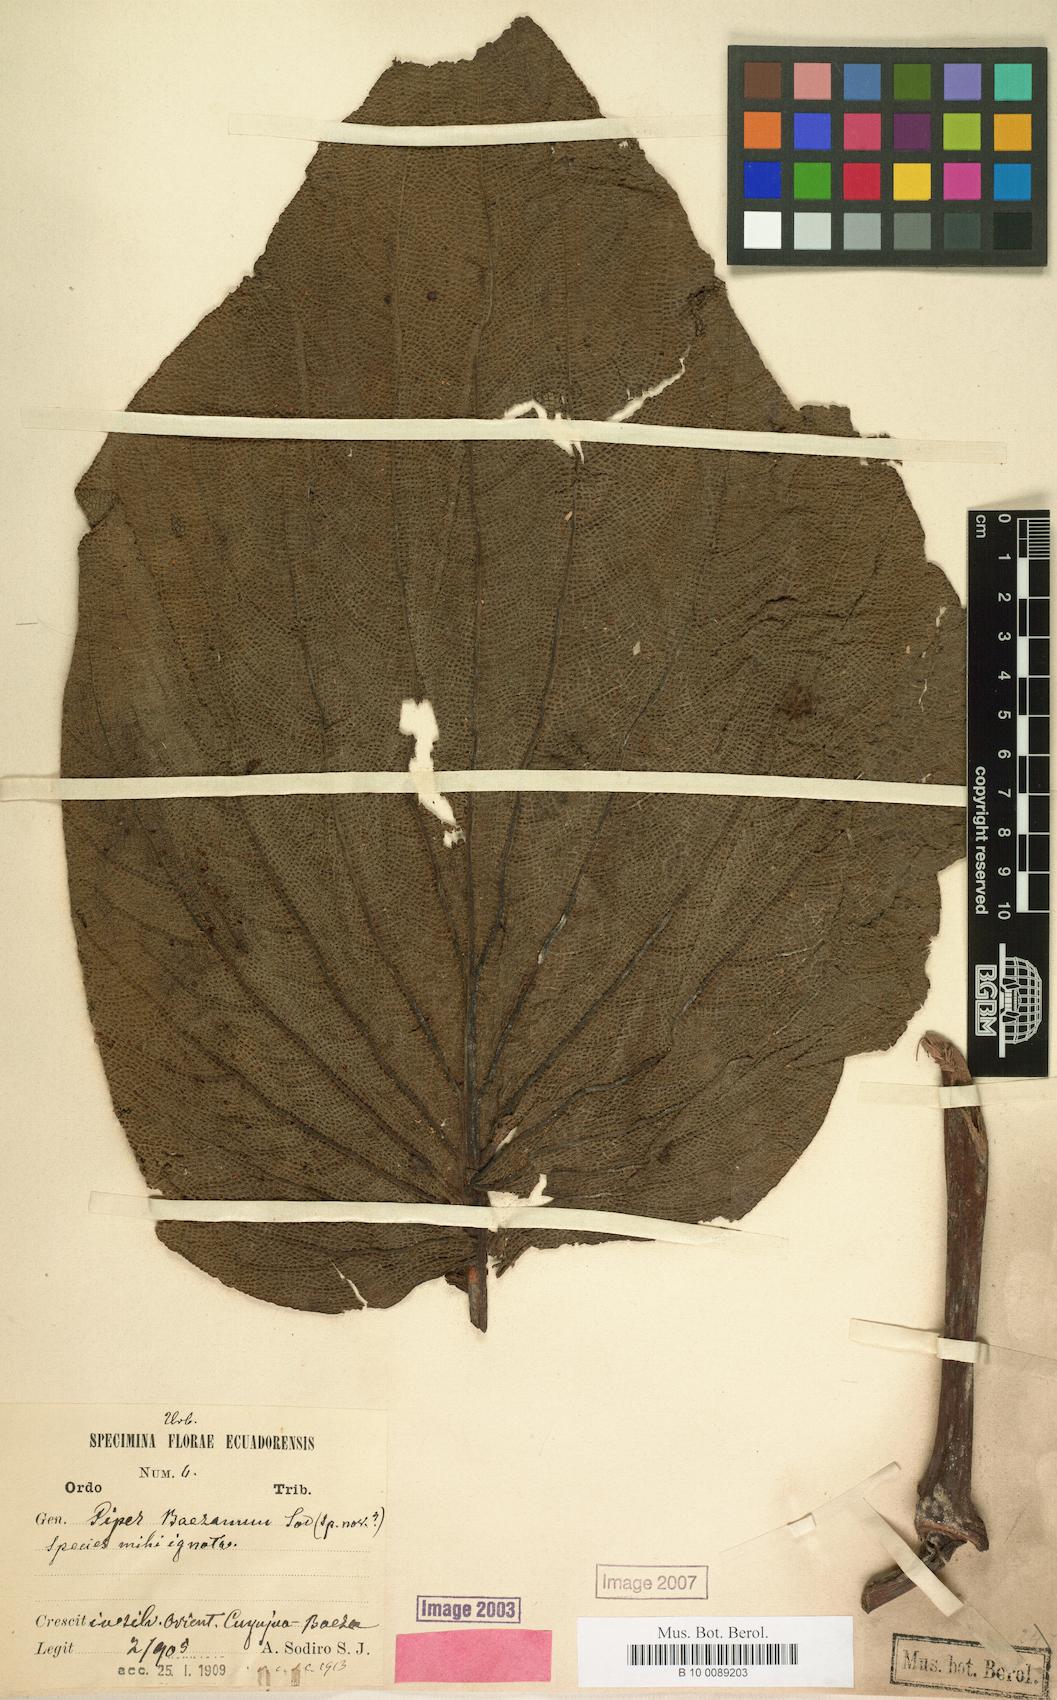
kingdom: Plantae
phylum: Tracheophyta
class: Magnoliopsida
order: Piperales
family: Piperaceae
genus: Piper
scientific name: Piper baezanum
